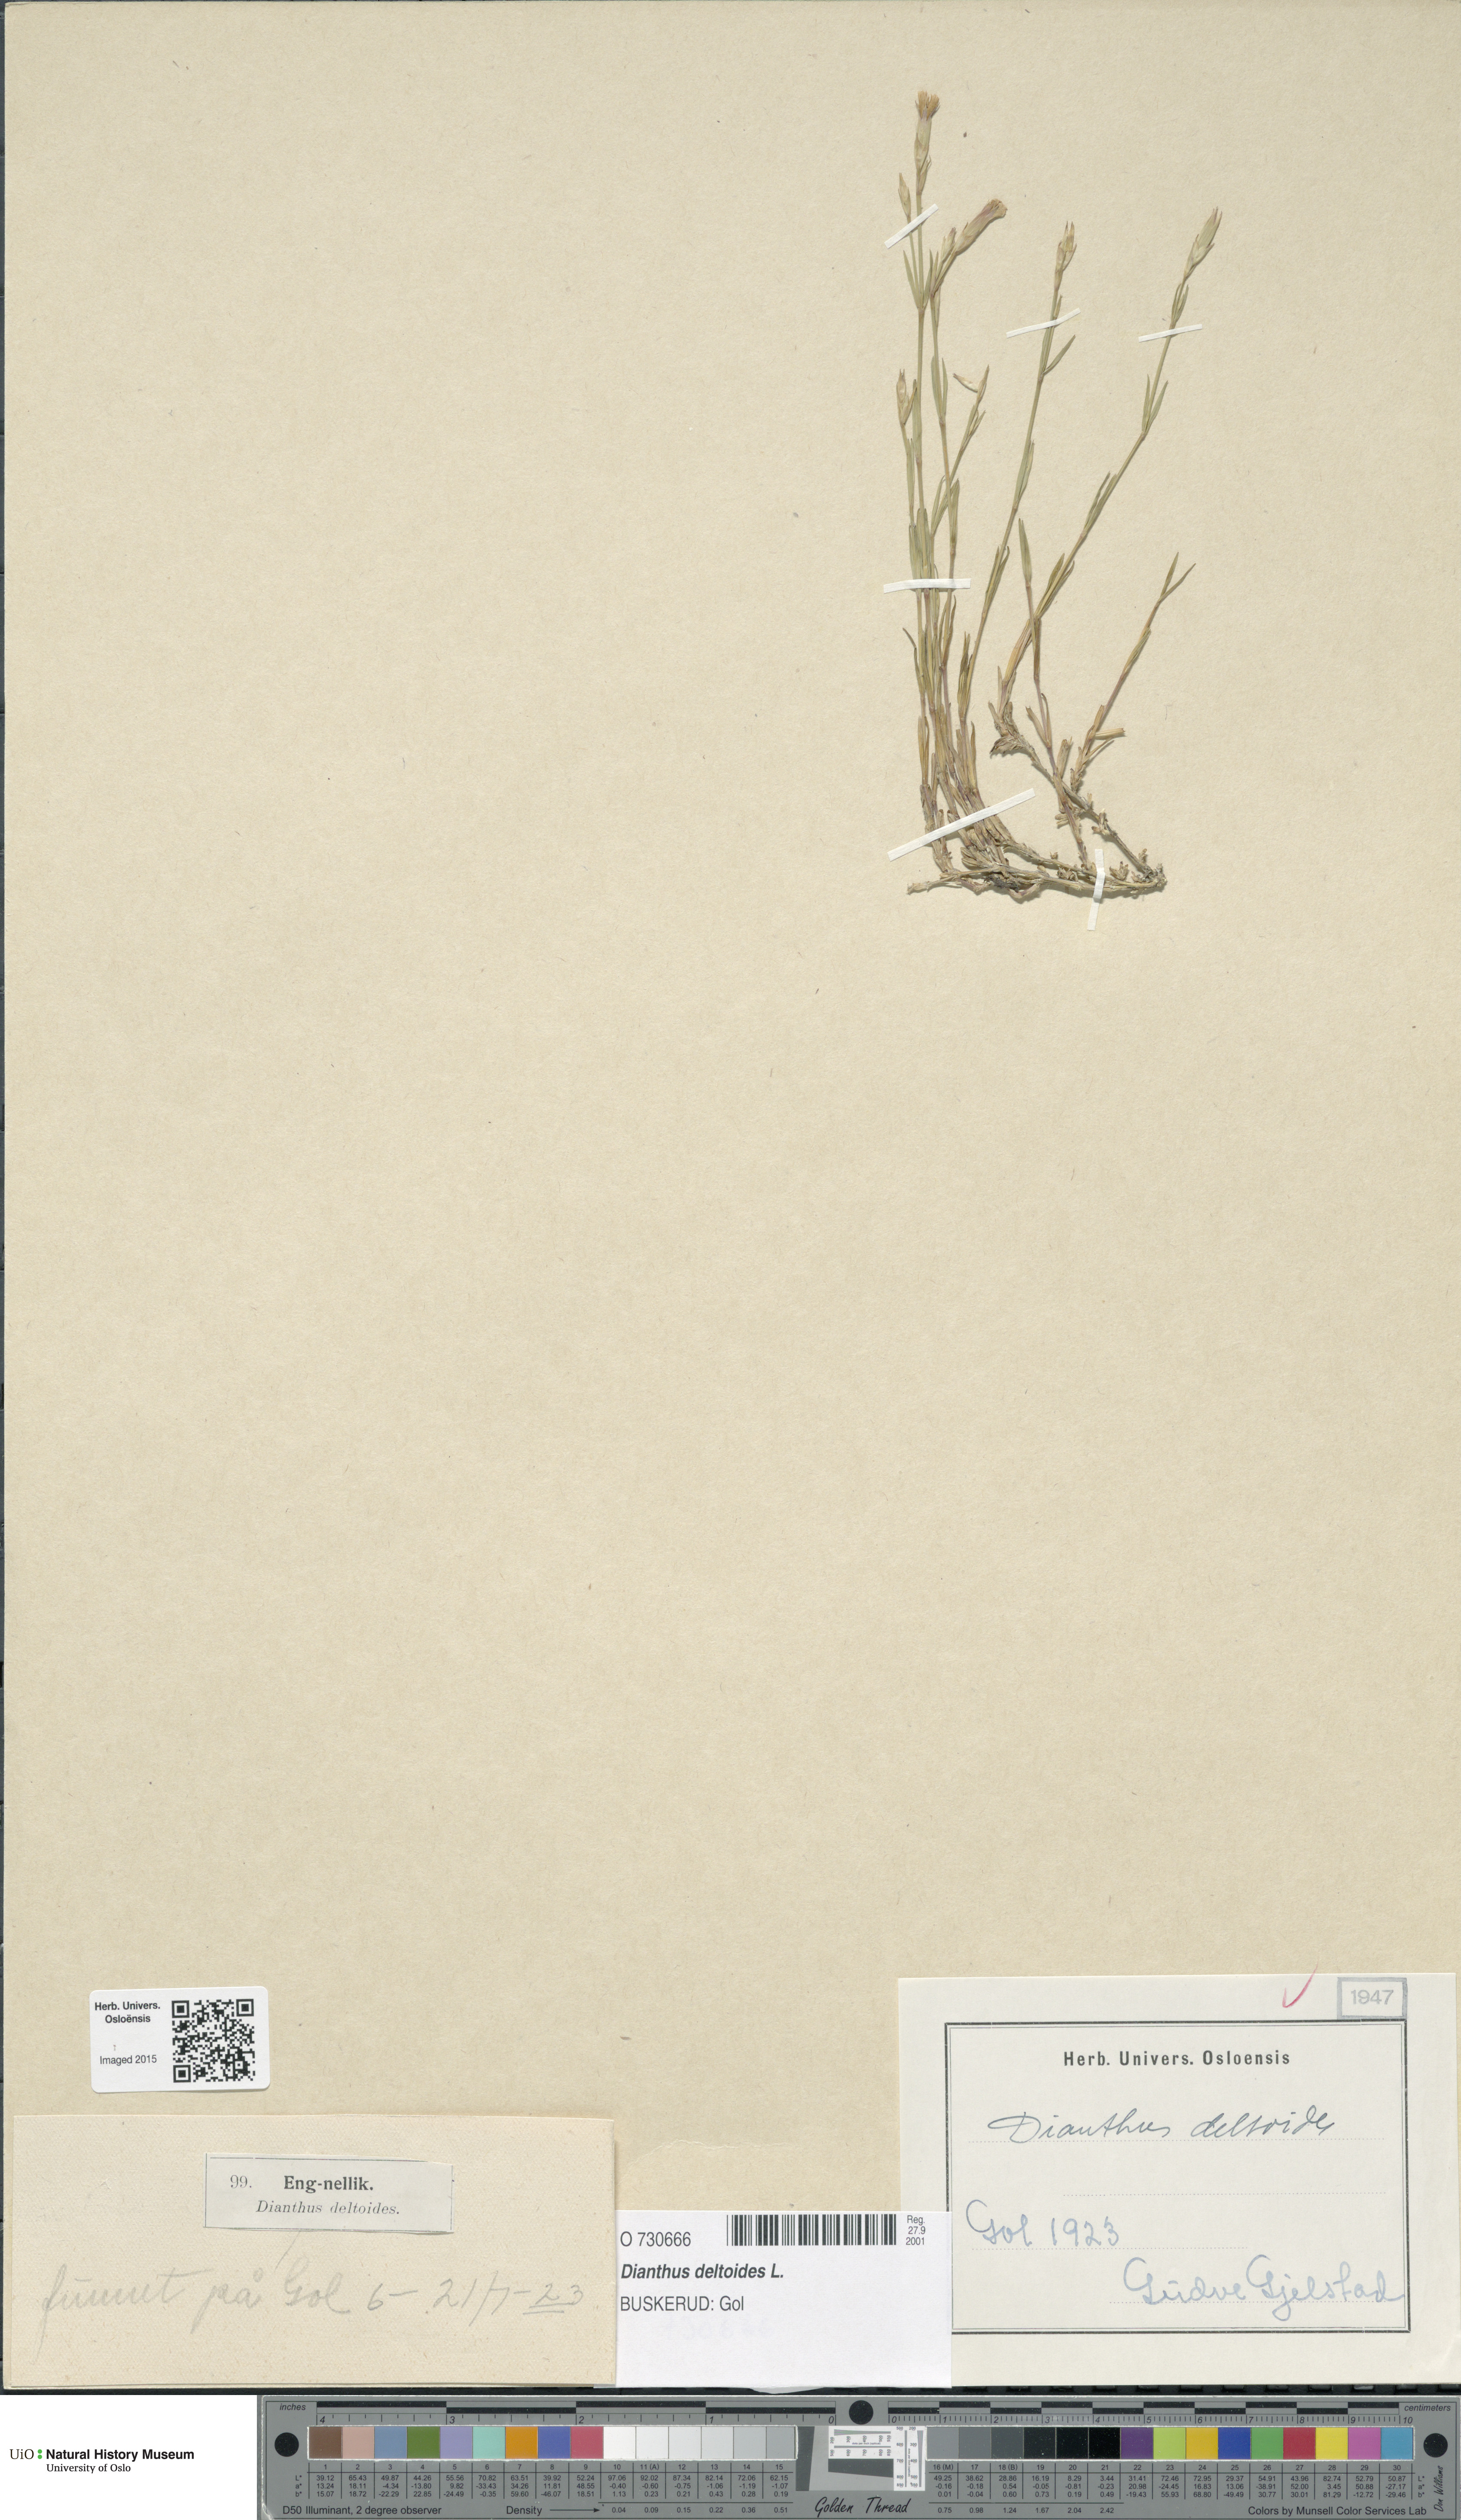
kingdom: Plantae
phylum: Tracheophyta
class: Magnoliopsida
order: Caryophyllales
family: Caryophyllaceae
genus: Dianthus
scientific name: Dianthus deltoides
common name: Maiden pink
